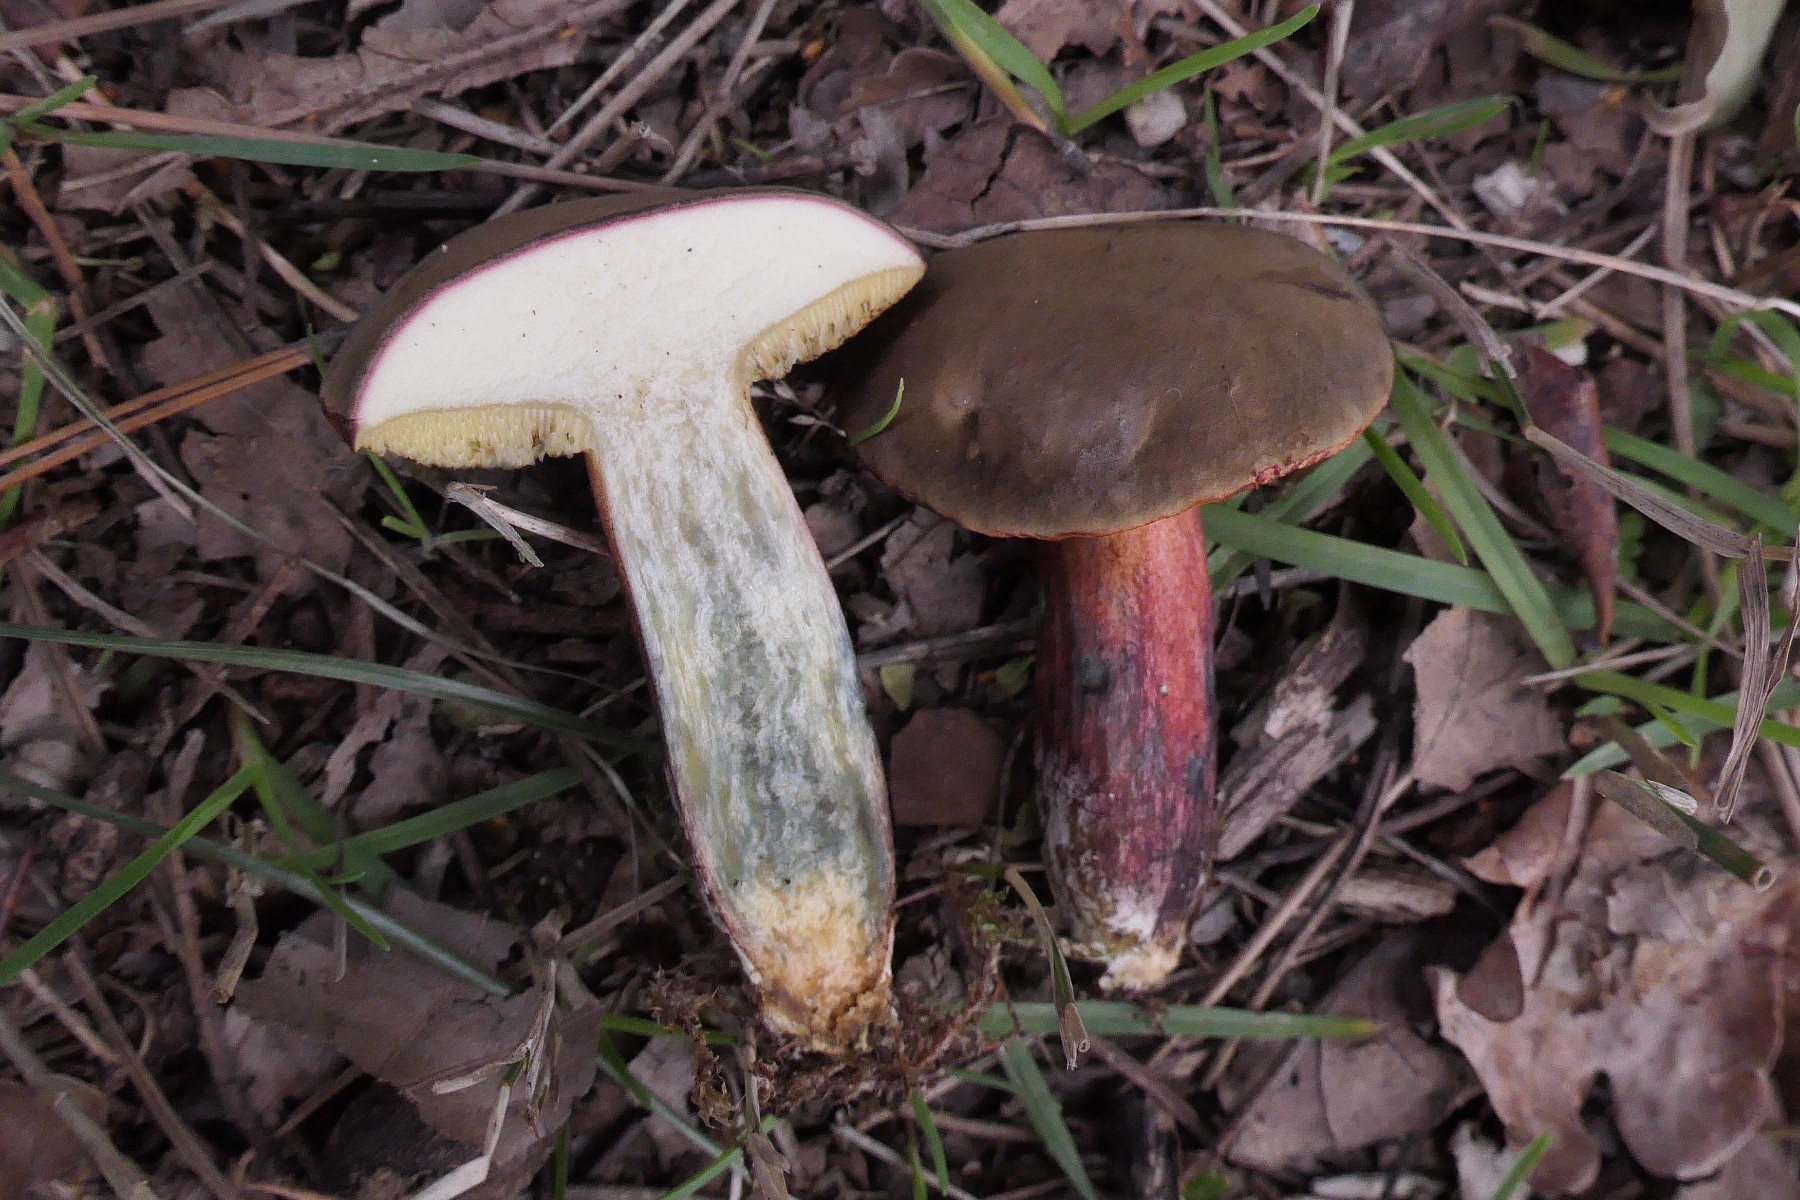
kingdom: Fungi
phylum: Basidiomycota
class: Agaricomycetes
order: Boletales
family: Boletaceae
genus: Xerocomellus
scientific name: Xerocomellus cisalpinus
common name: finsprukken rørhat
